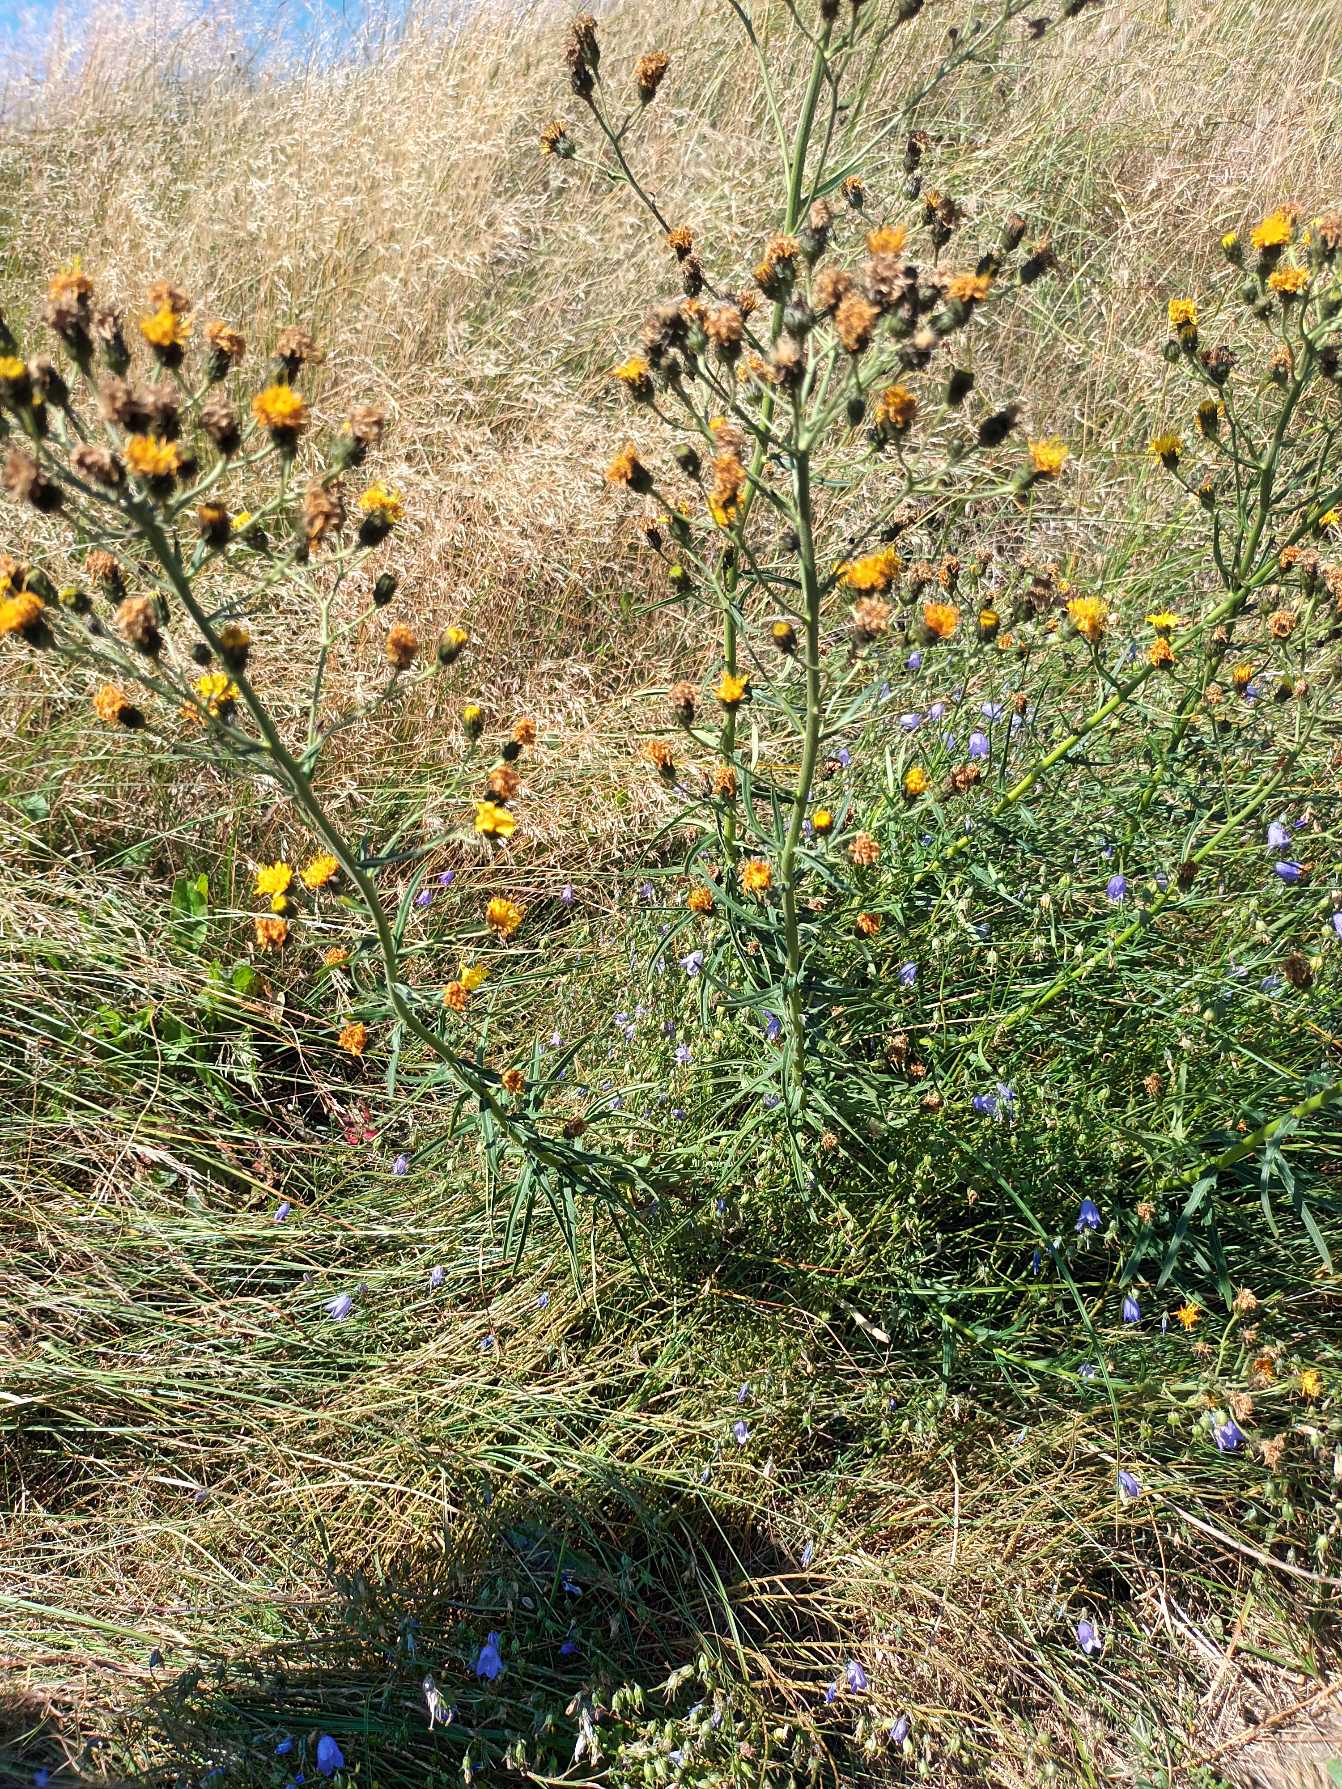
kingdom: Plantae
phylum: Tracheophyta
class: Magnoliopsida
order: Asterales
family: Asteraceae
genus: Hieracium
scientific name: Hieracium umbellatum
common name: Smalbladet høgeurt
